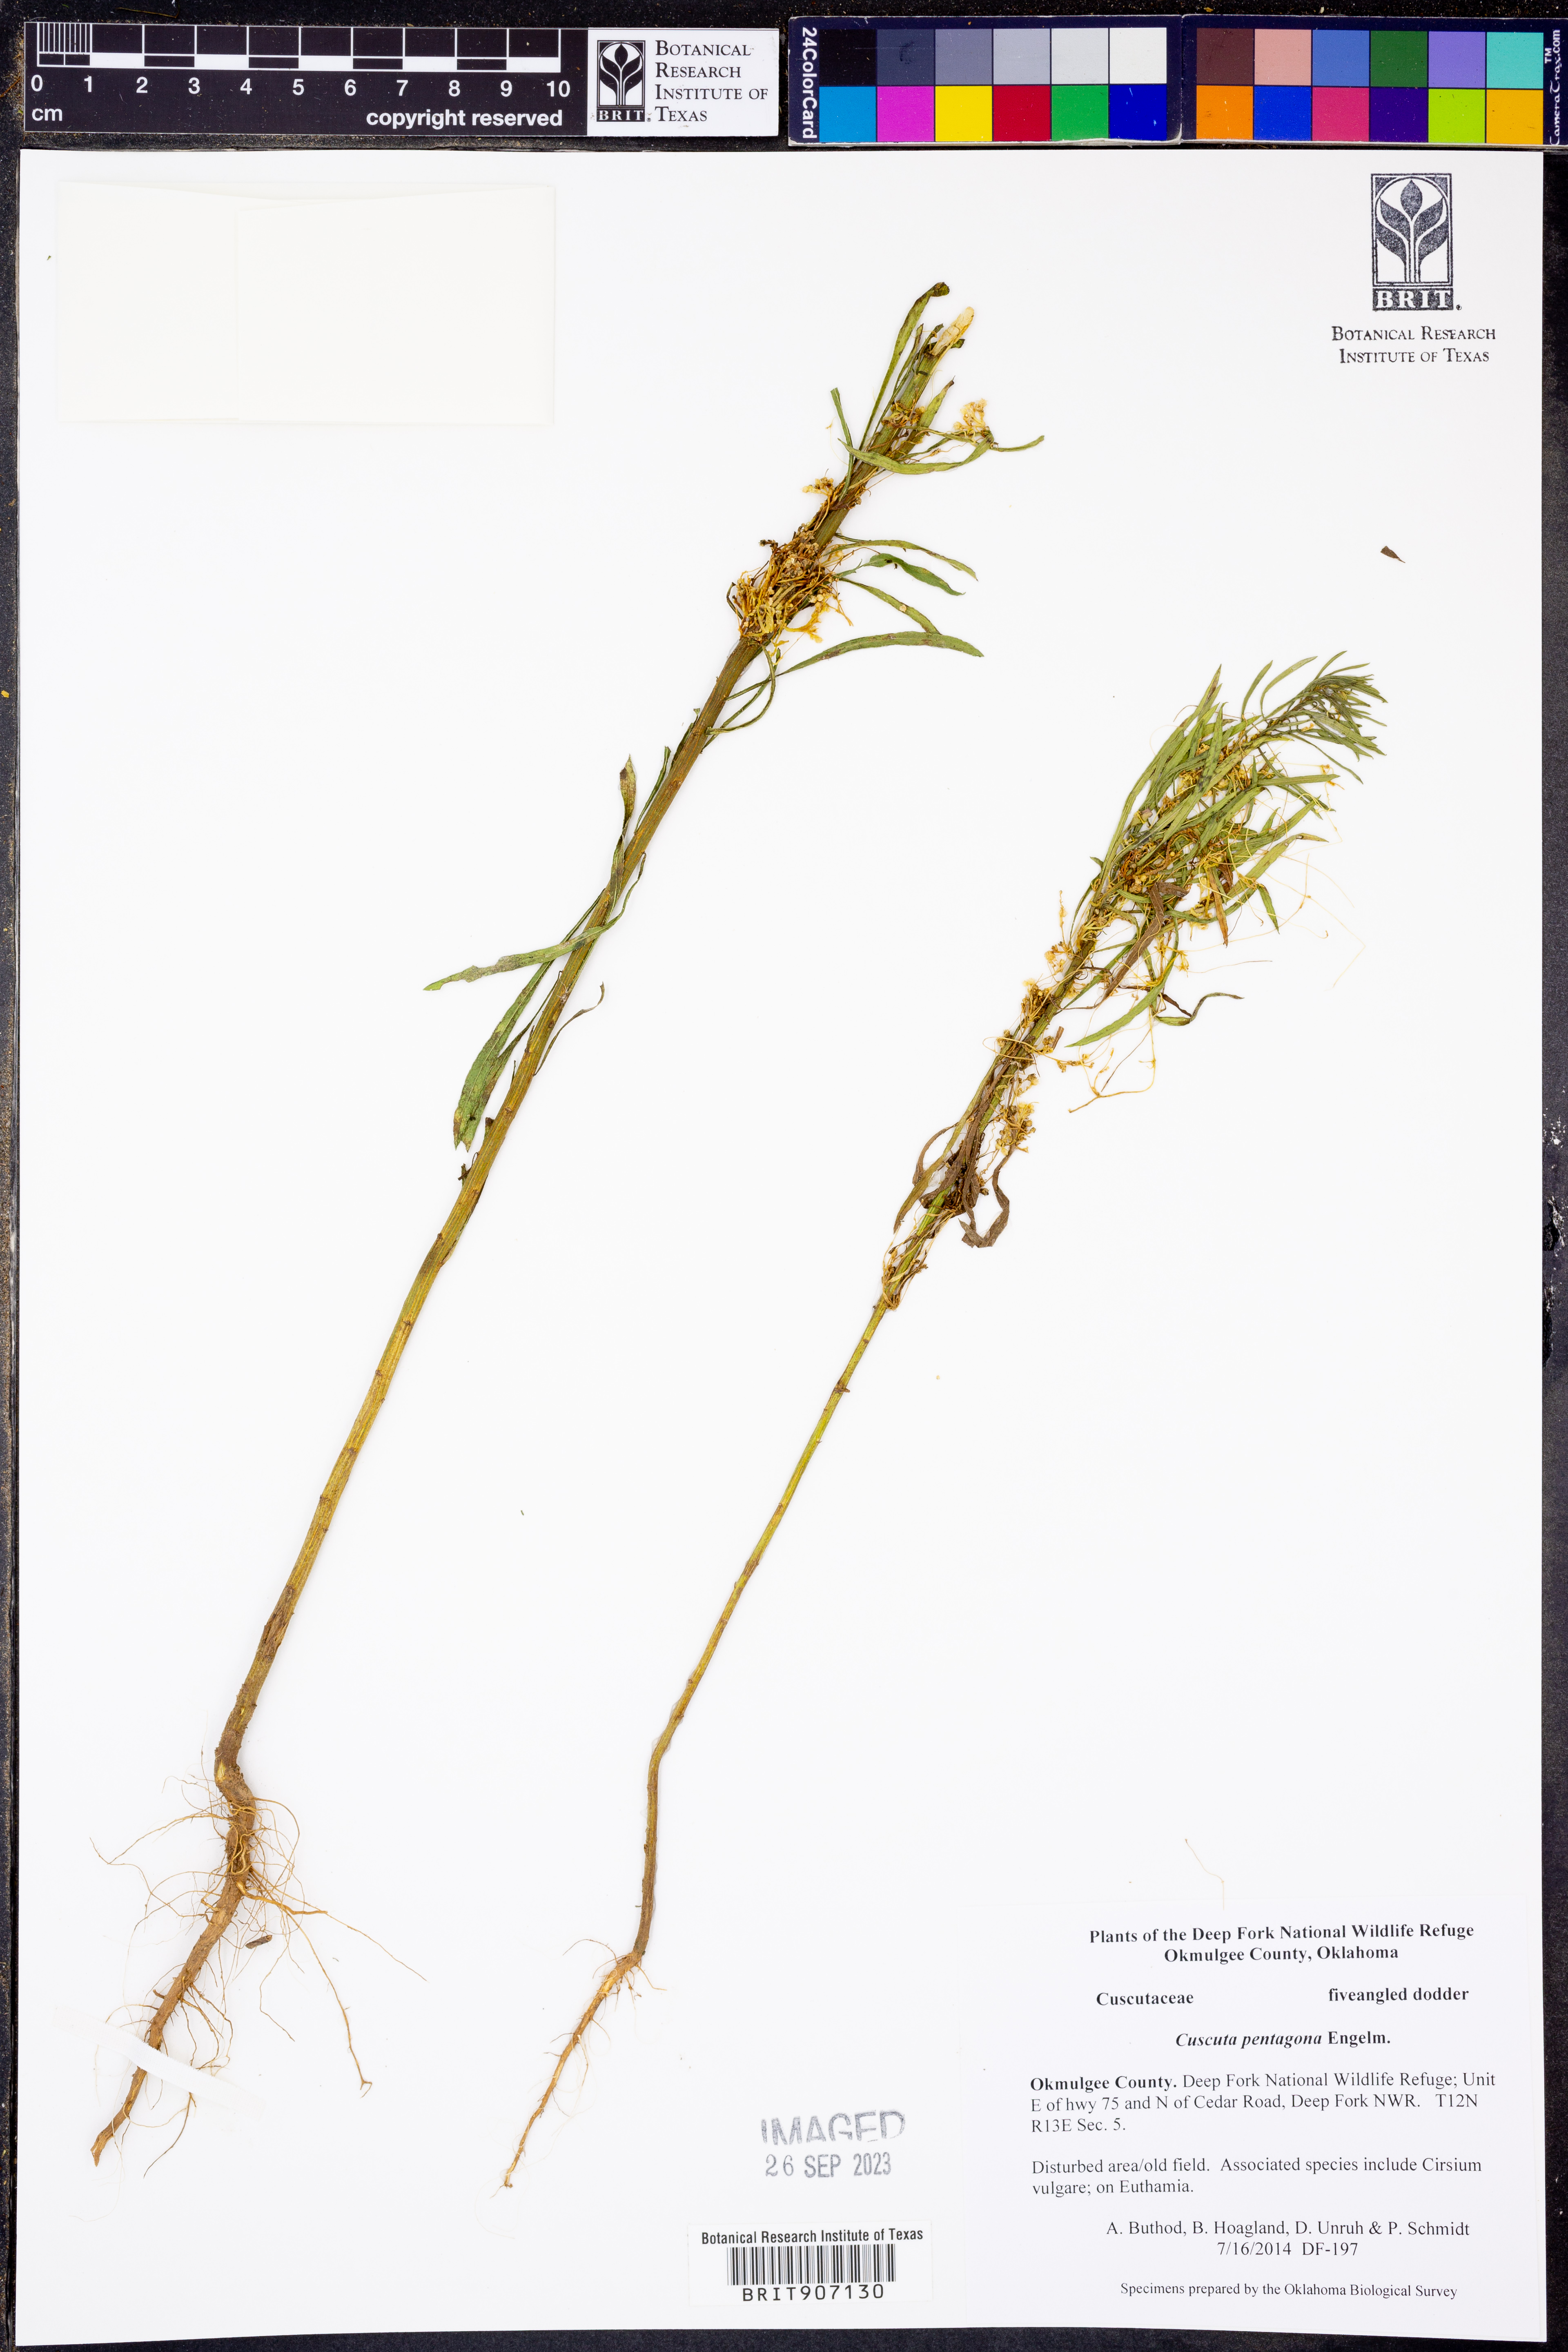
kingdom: Plantae
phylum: Tracheophyta
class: Magnoliopsida
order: Solanales
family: Convolvulaceae
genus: Cuscuta
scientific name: Cuscuta pentagona
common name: Fiveangled dodder
